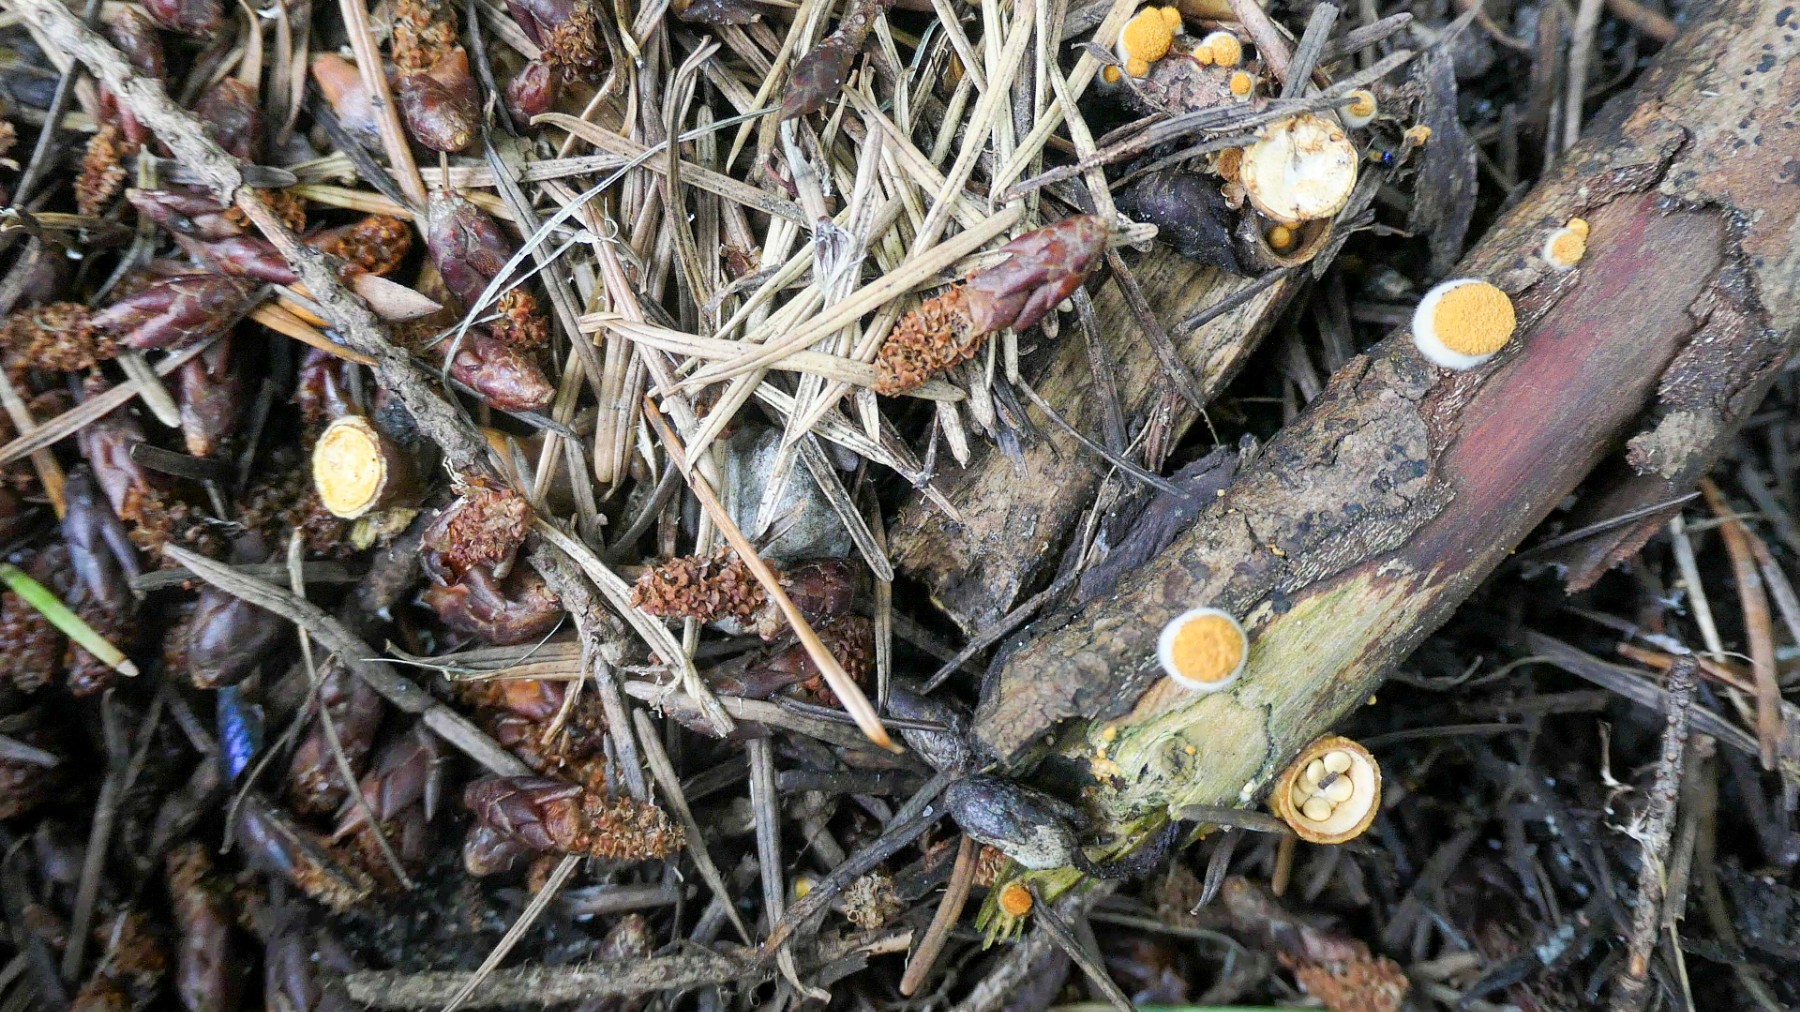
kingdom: Fungi
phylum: Basidiomycota
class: Agaricomycetes
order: Agaricales
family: Nidulariaceae
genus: Crucibulum
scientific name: Crucibulum crucibuliforme
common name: krukkesvamp
